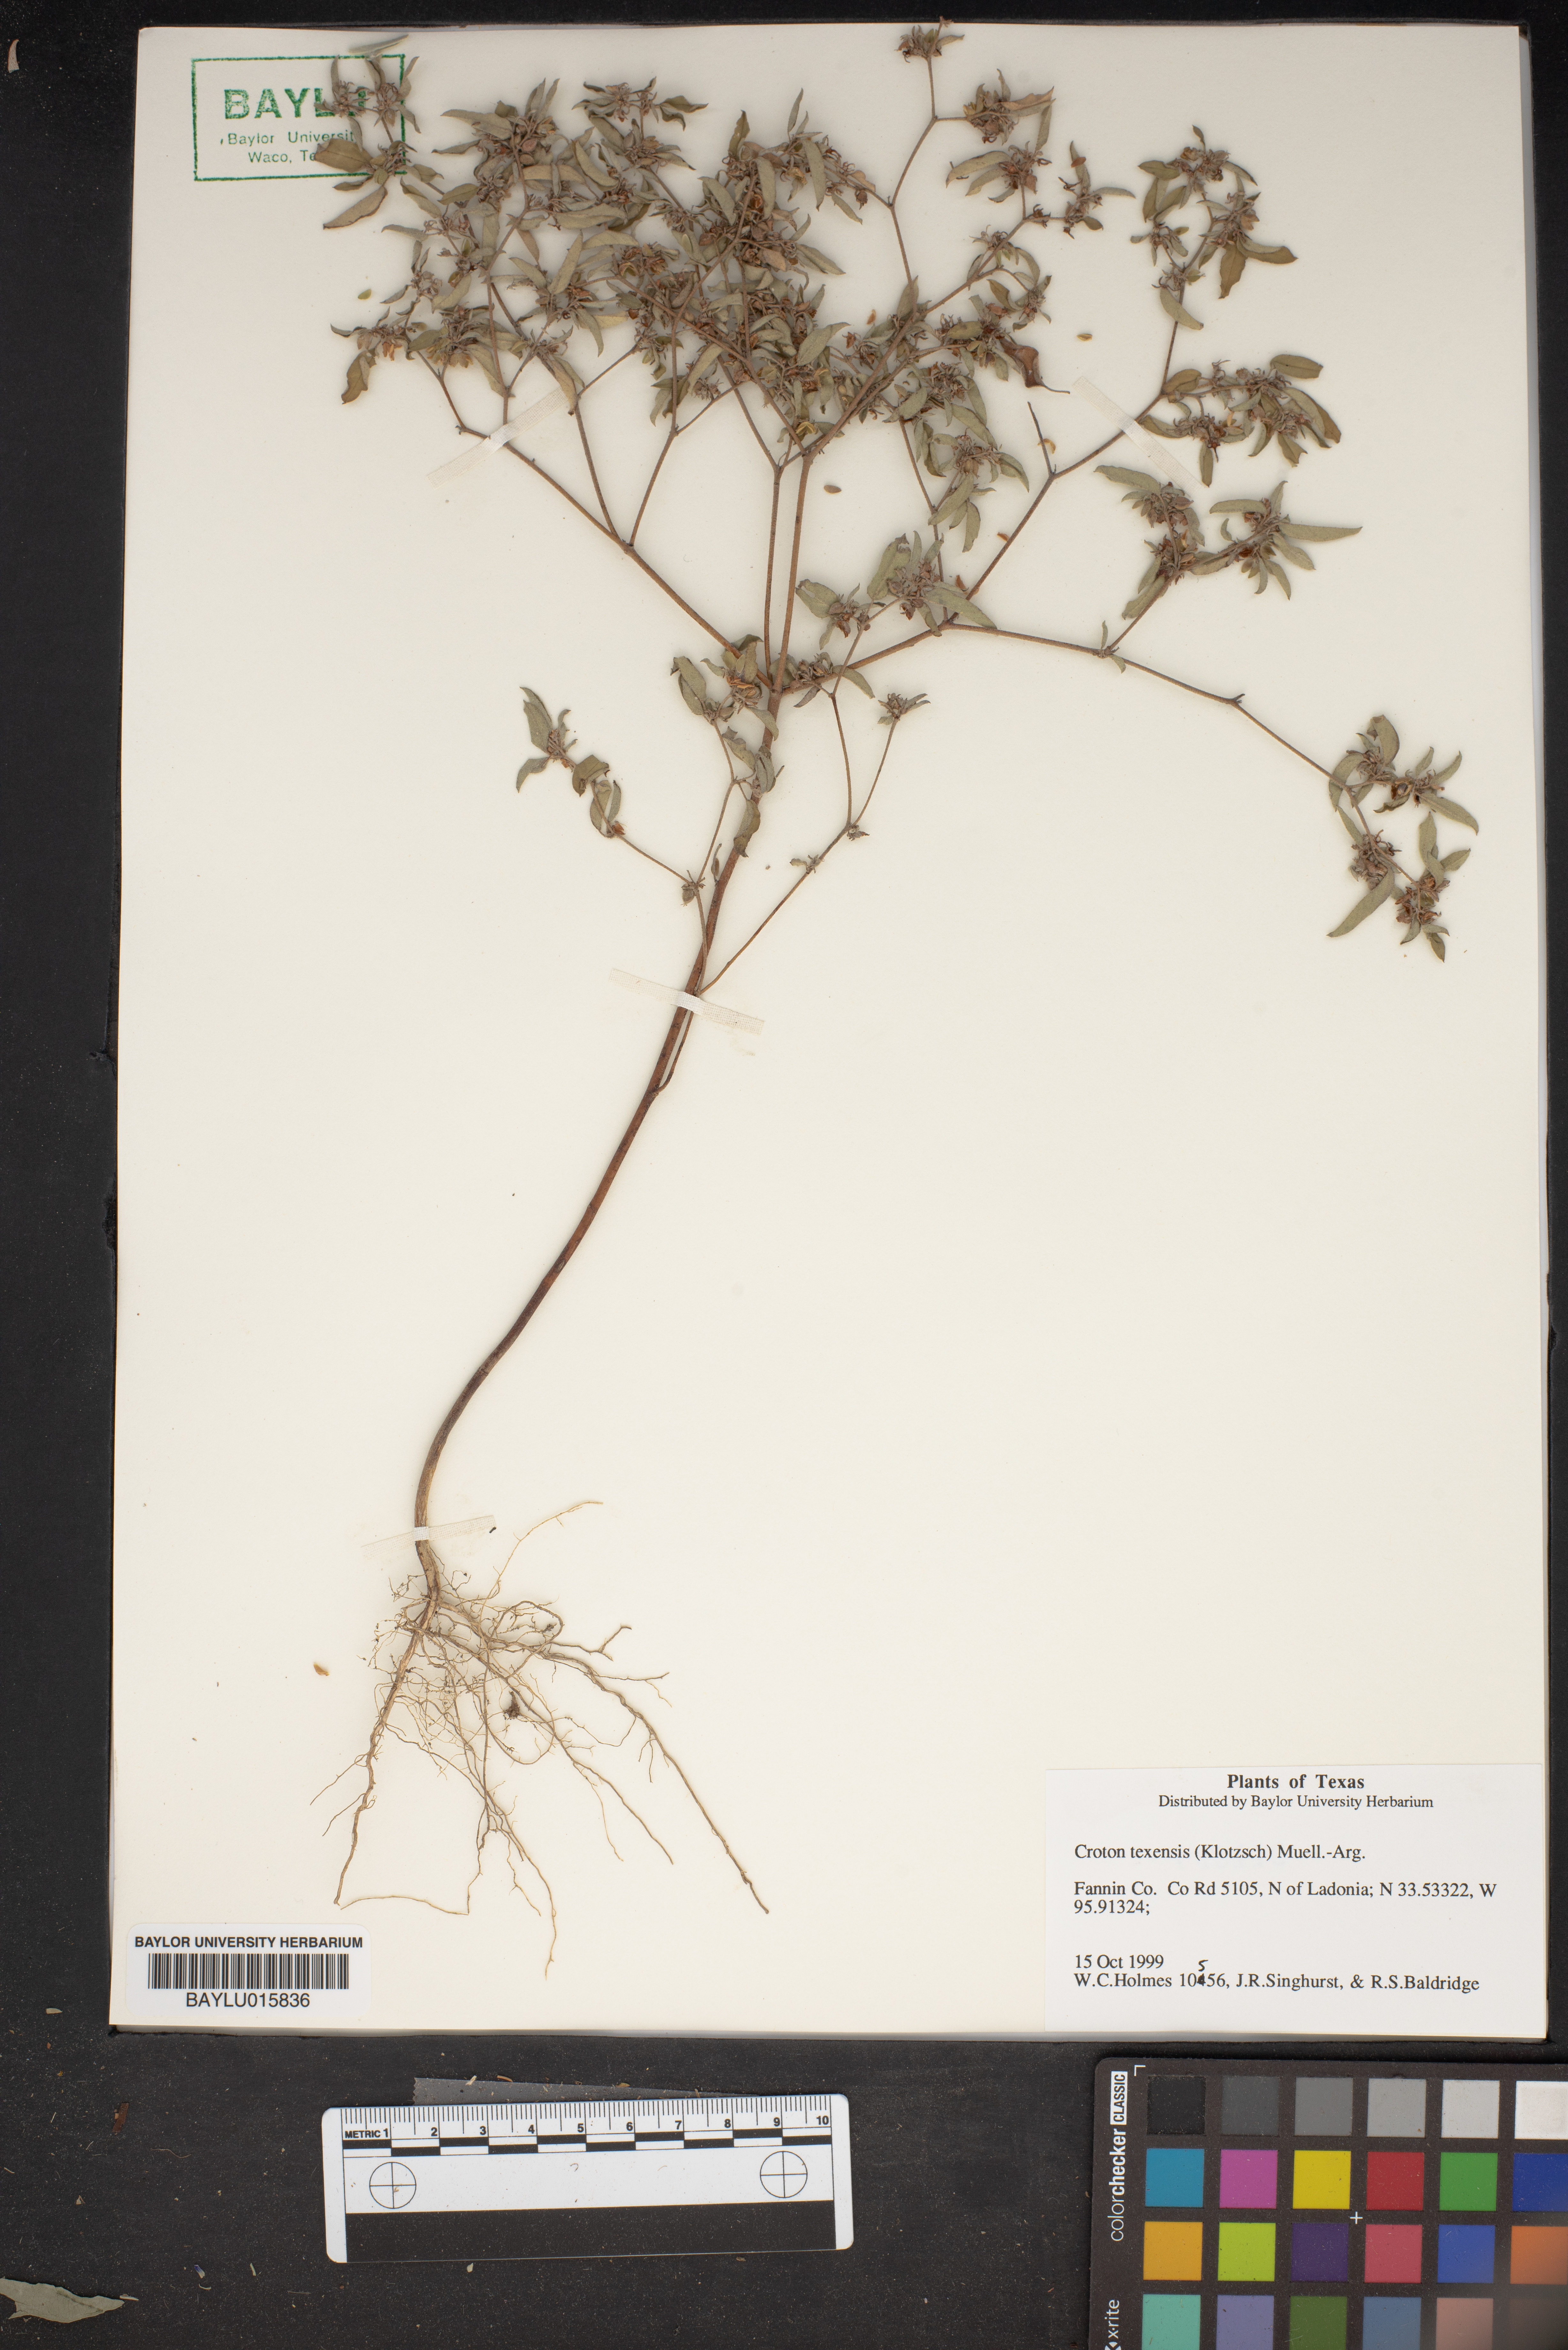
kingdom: Plantae
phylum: Tracheophyta
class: Magnoliopsida
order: Malpighiales
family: Euphorbiaceae
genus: Croton
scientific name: Croton texensis
